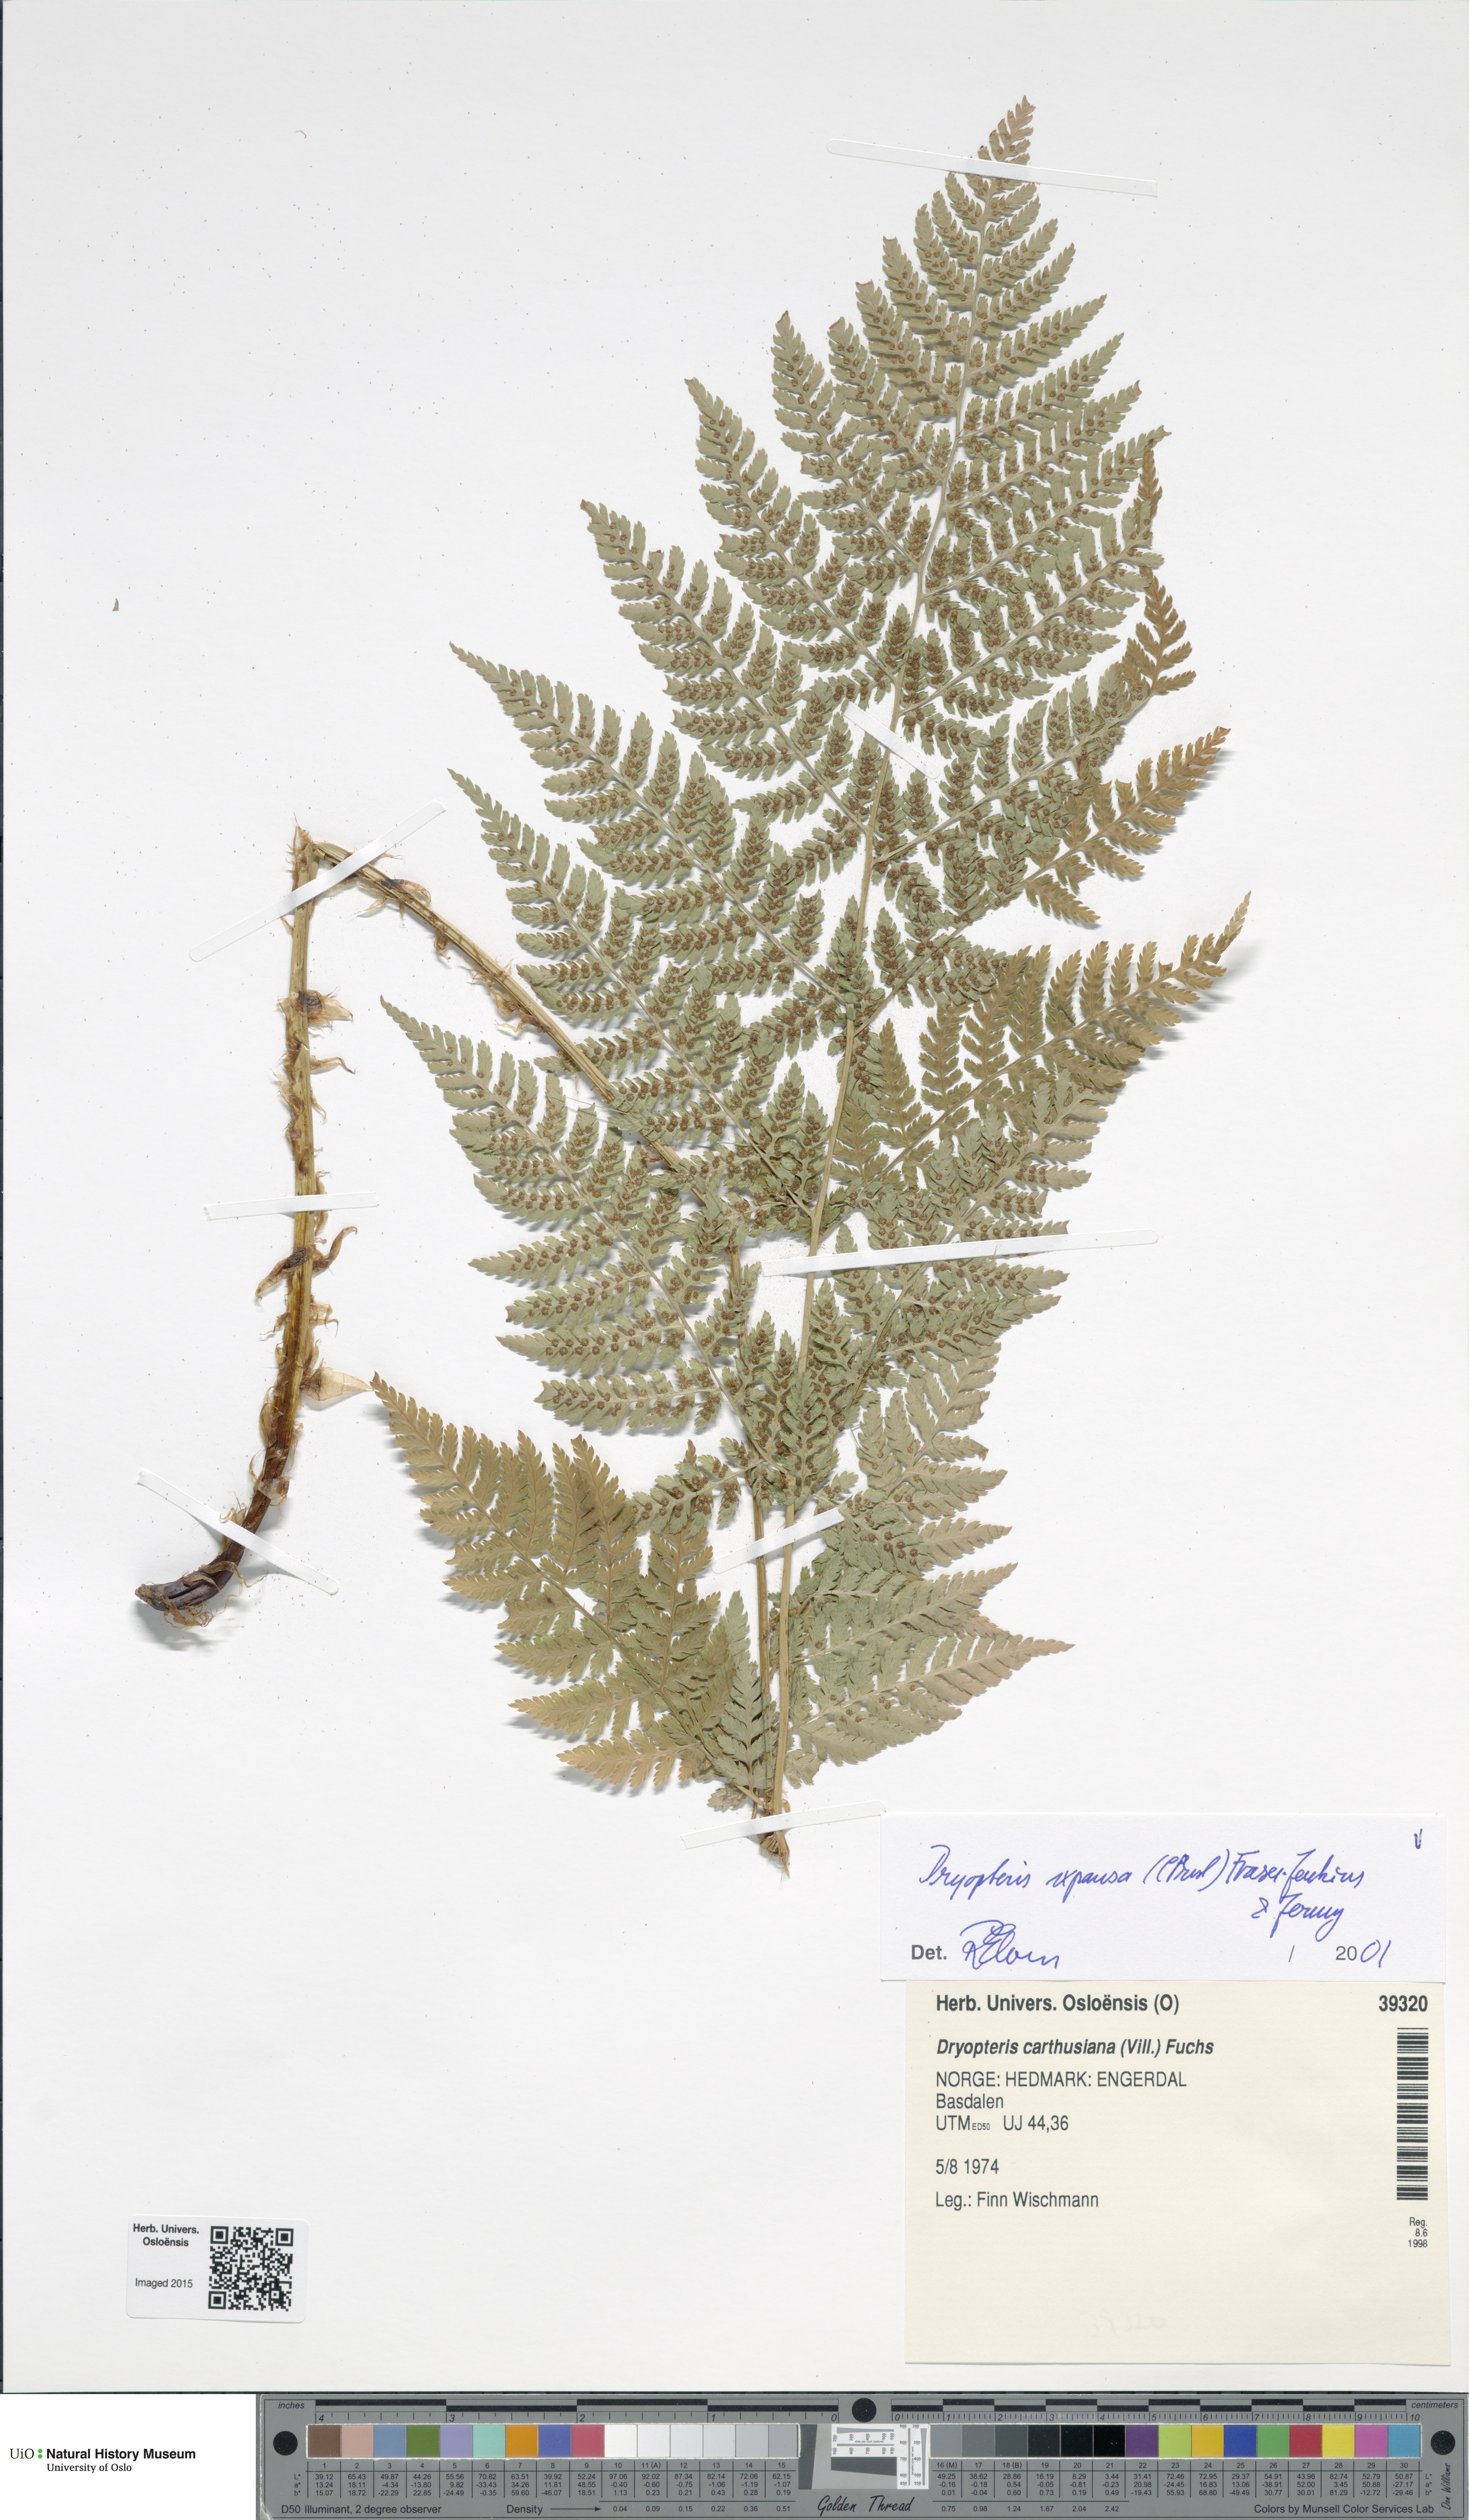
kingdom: Plantae
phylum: Tracheophyta
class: Polypodiopsida
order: Polypodiales
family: Dryopteridaceae
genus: Dryopteris
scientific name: Dryopteris expansa
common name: Northern buckler fern
